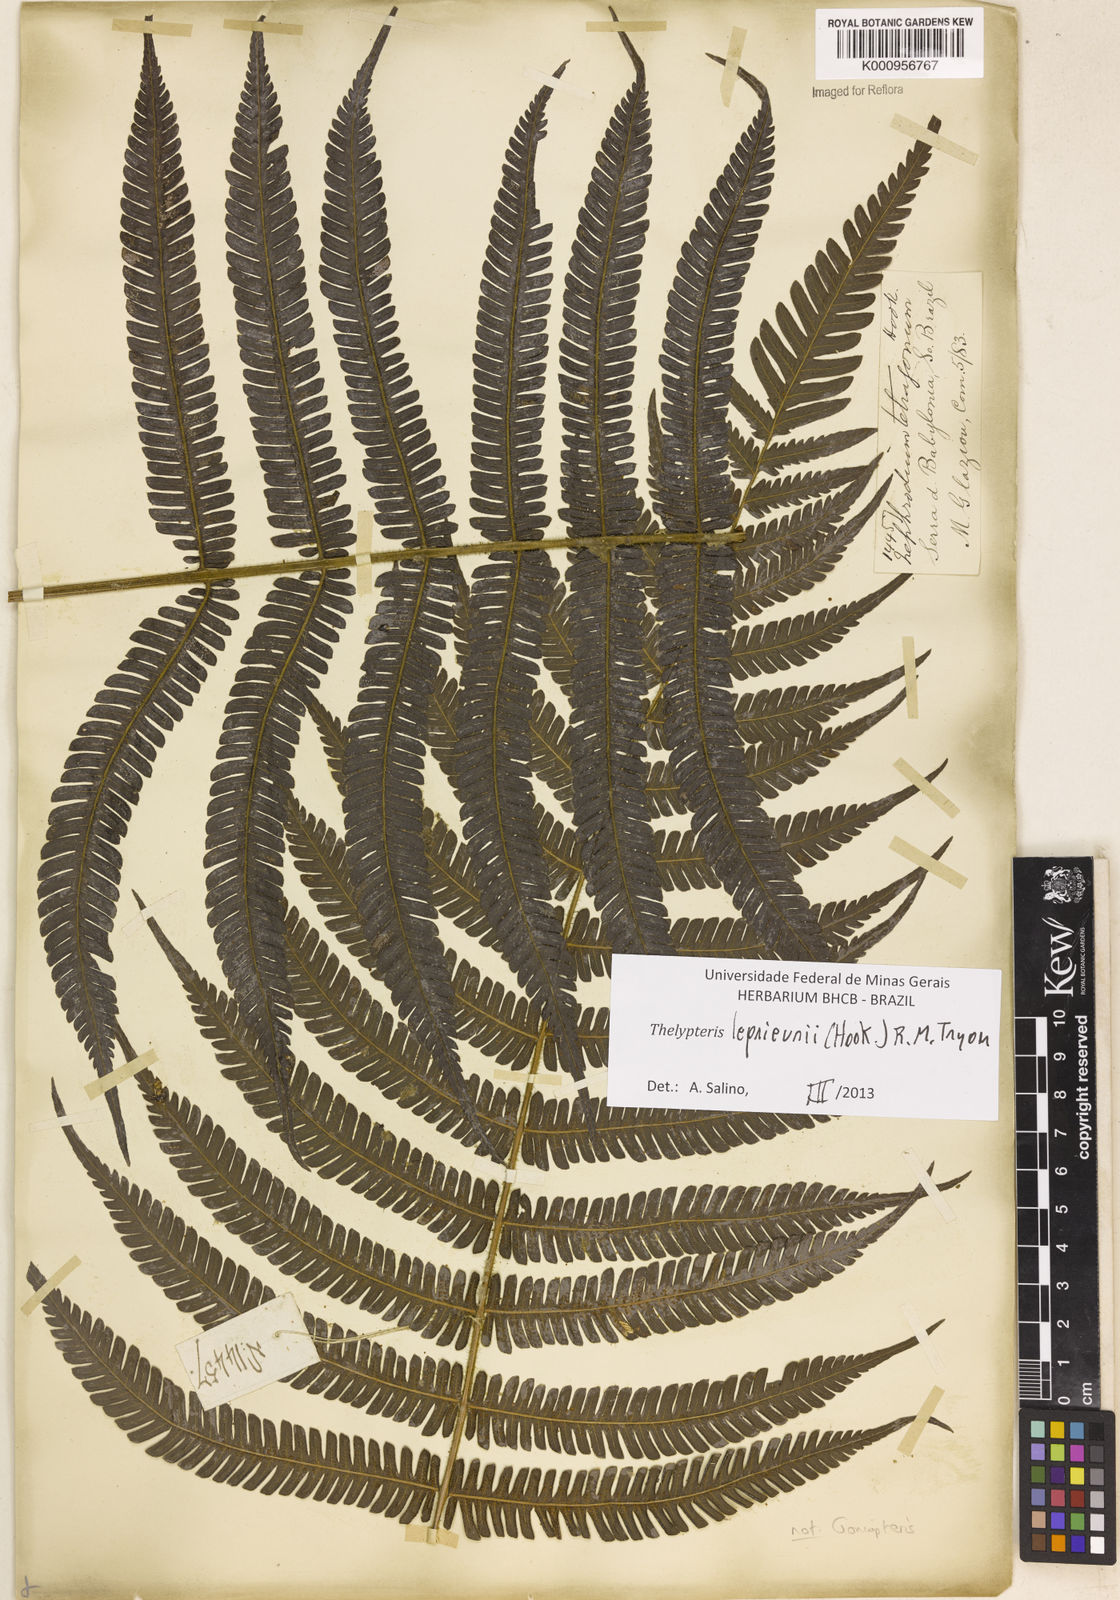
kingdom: Plantae
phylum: Tracheophyta
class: Polypodiopsida
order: Polypodiales
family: Thelypteridaceae
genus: Steiropteris
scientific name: Steiropteris leprieurii
